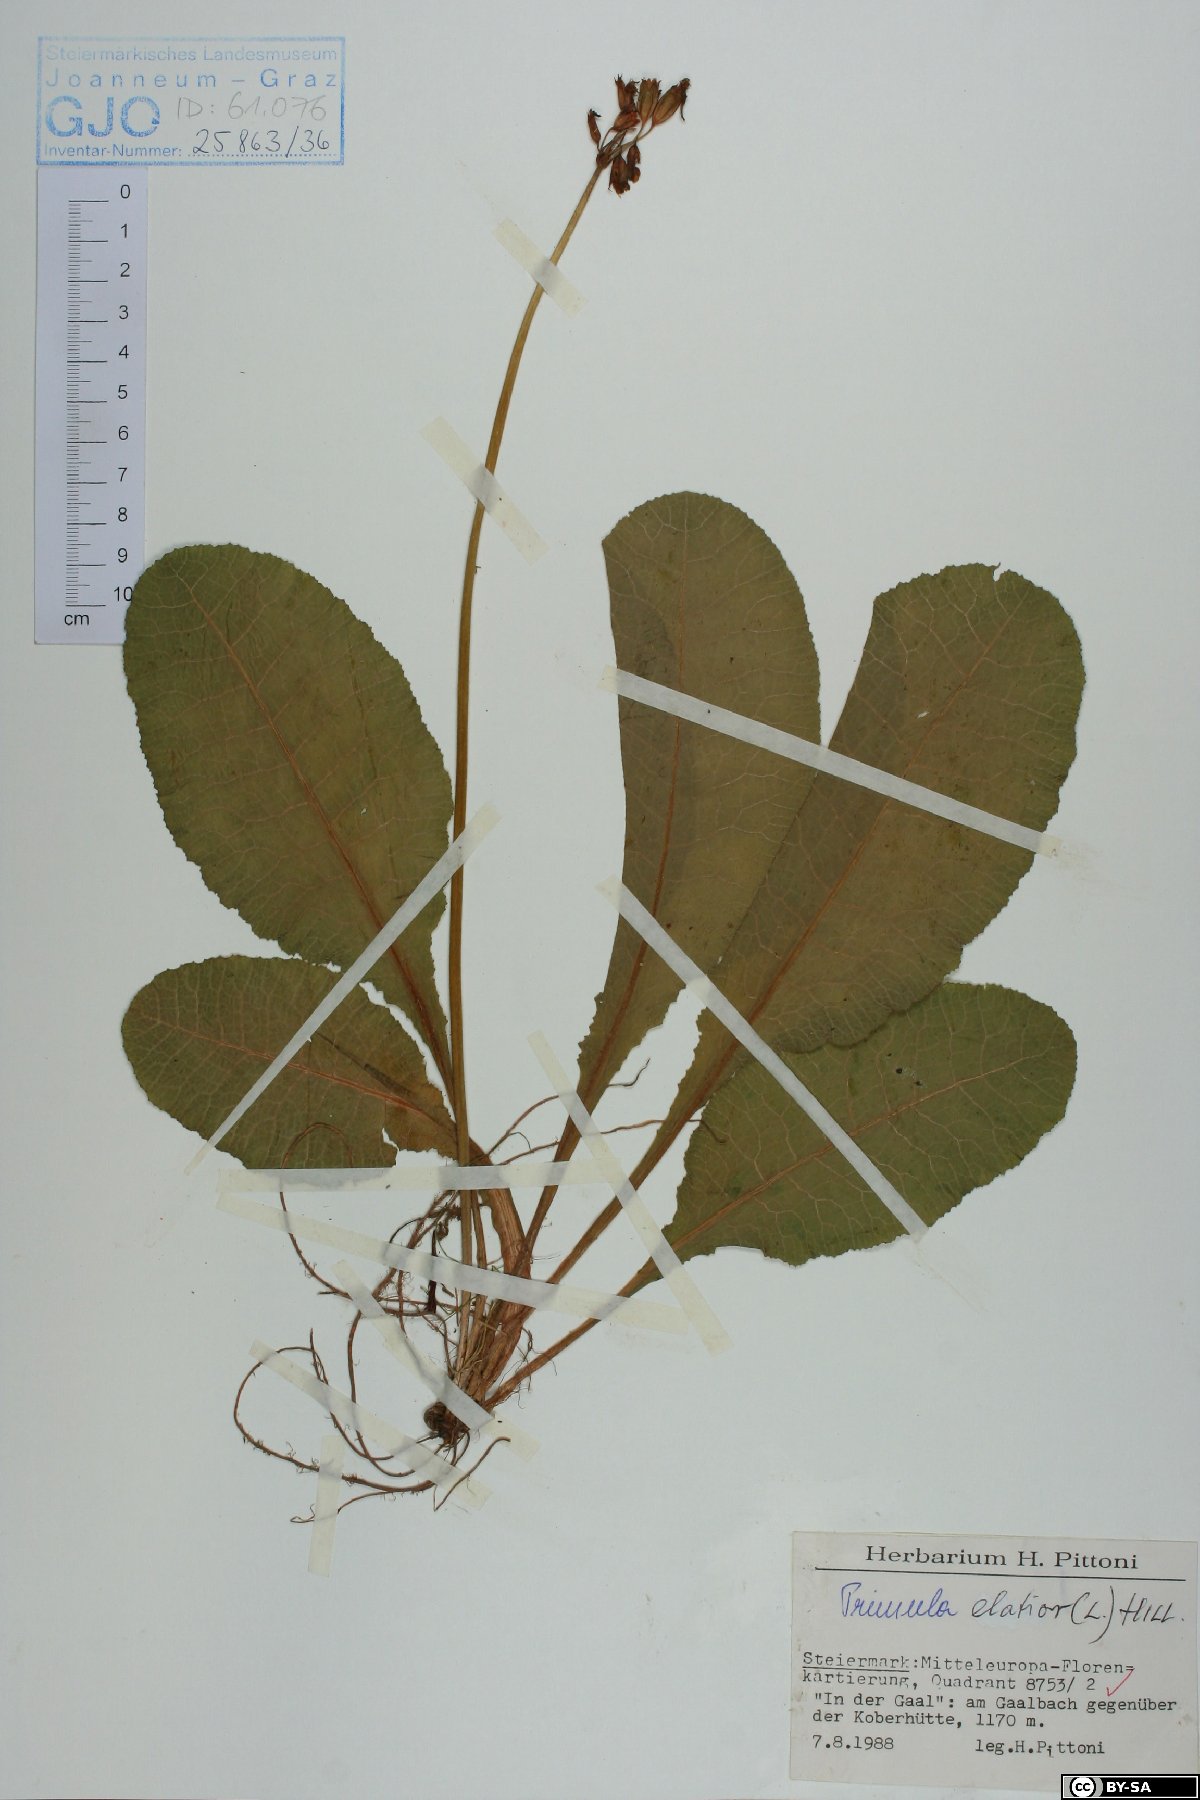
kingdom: Plantae
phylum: Tracheophyta
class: Magnoliopsida
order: Ericales
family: Primulaceae
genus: Primula
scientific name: Primula elatior
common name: Oxlip
